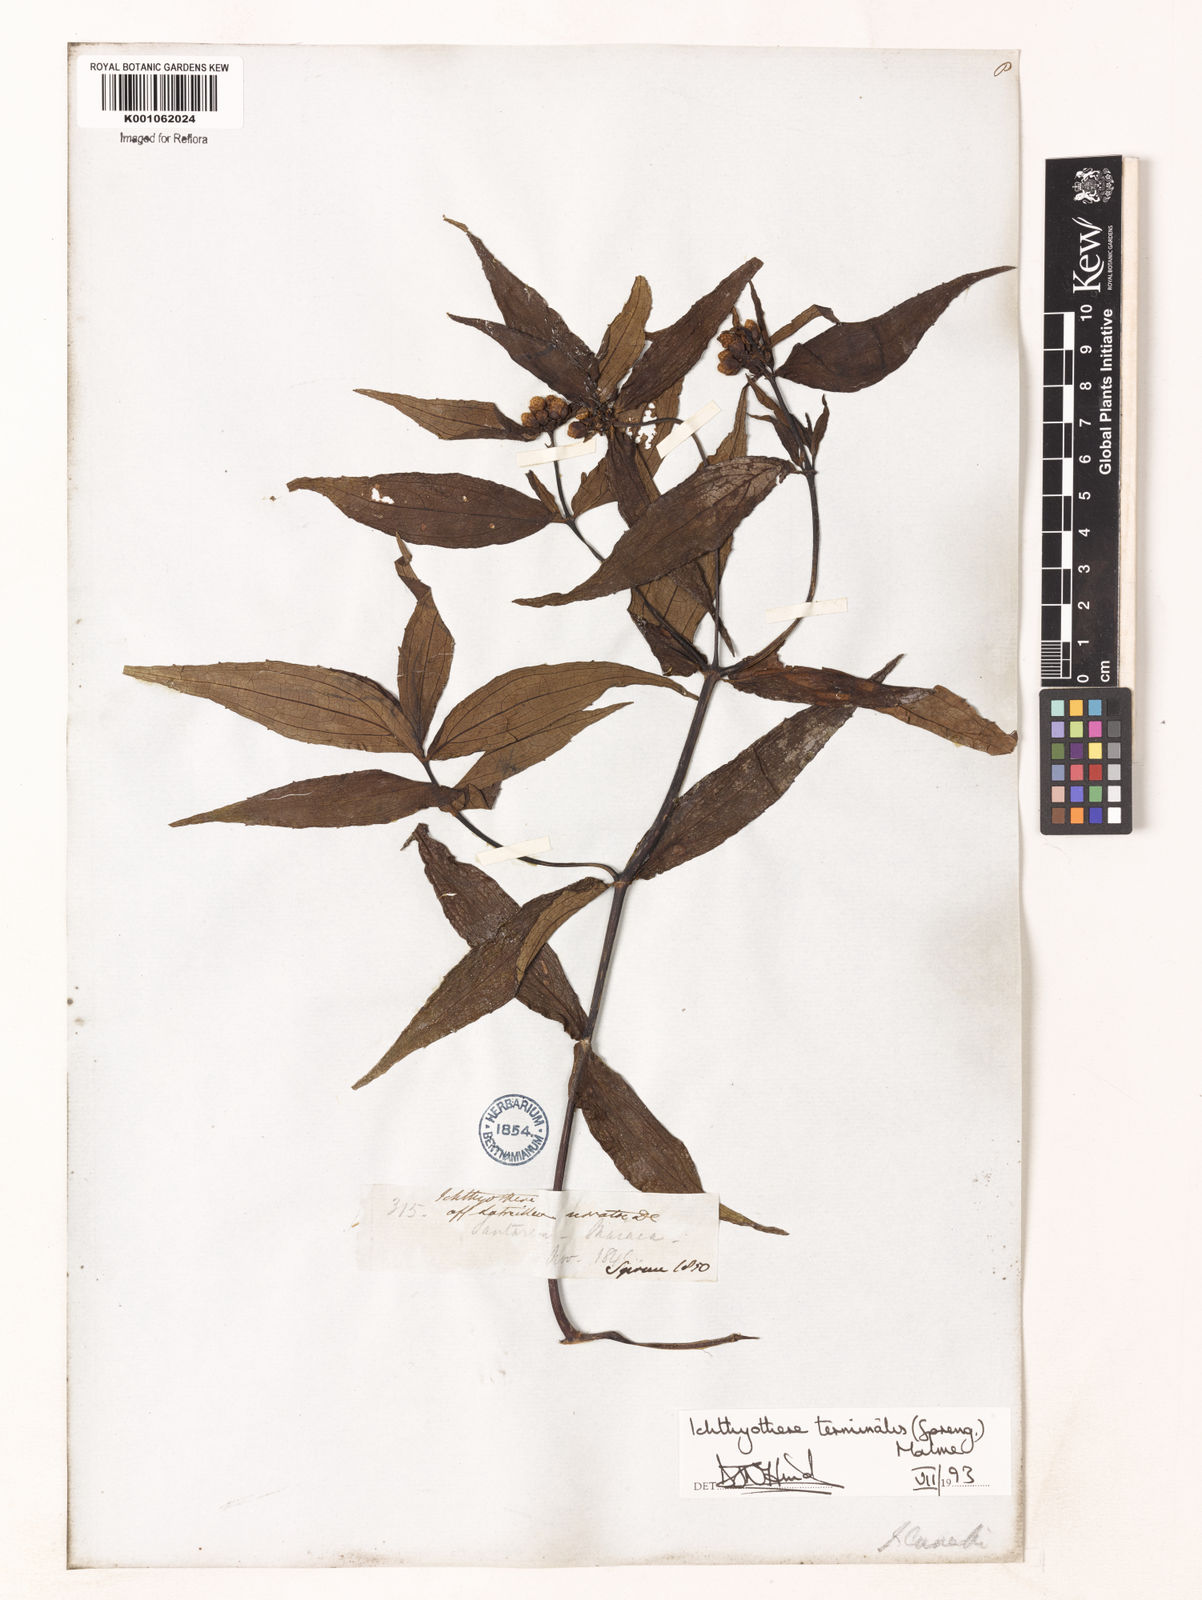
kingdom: Plantae
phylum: Tracheophyta
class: Magnoliopsida
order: Asterales
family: Asteraceae
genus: Ichthyothere
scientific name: Ichthyothere terminalis
